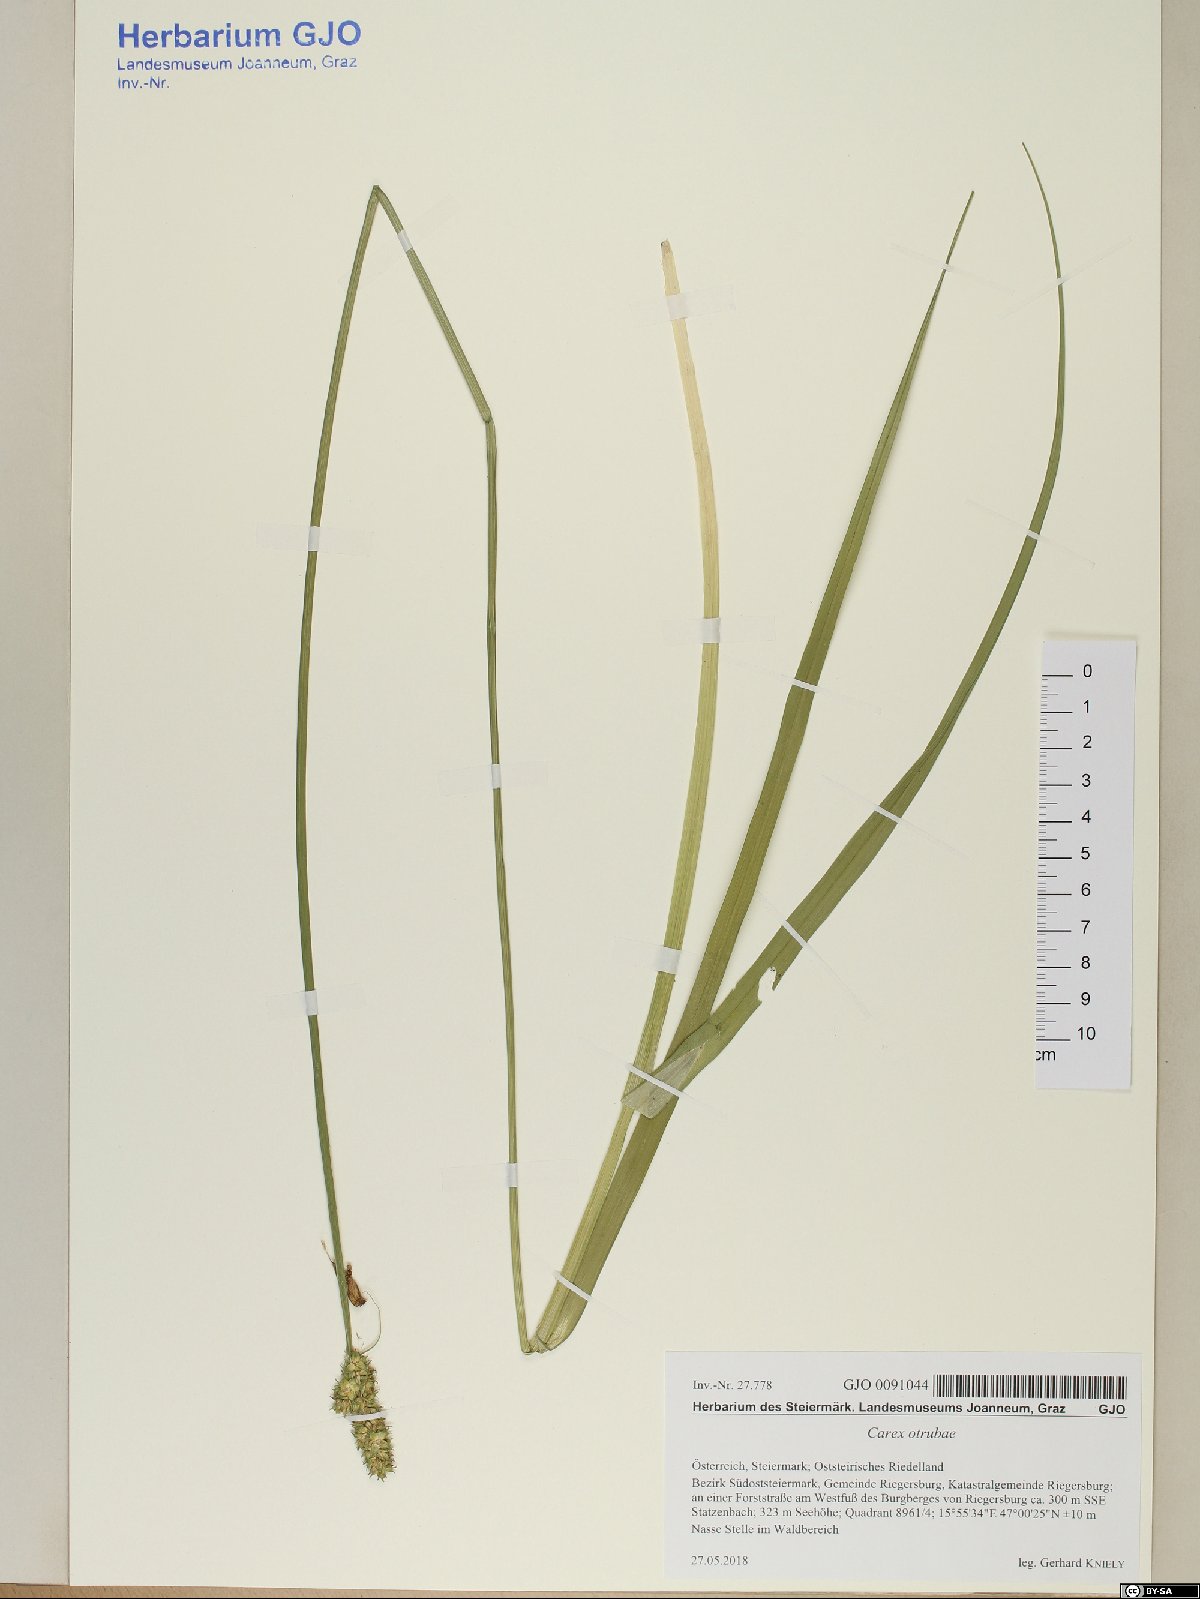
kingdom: Plantae
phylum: Tracheophyta
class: Liliopsida
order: Poales
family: Cyperaceae
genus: Carex
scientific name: Carex otrubae
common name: False fox-sedge
